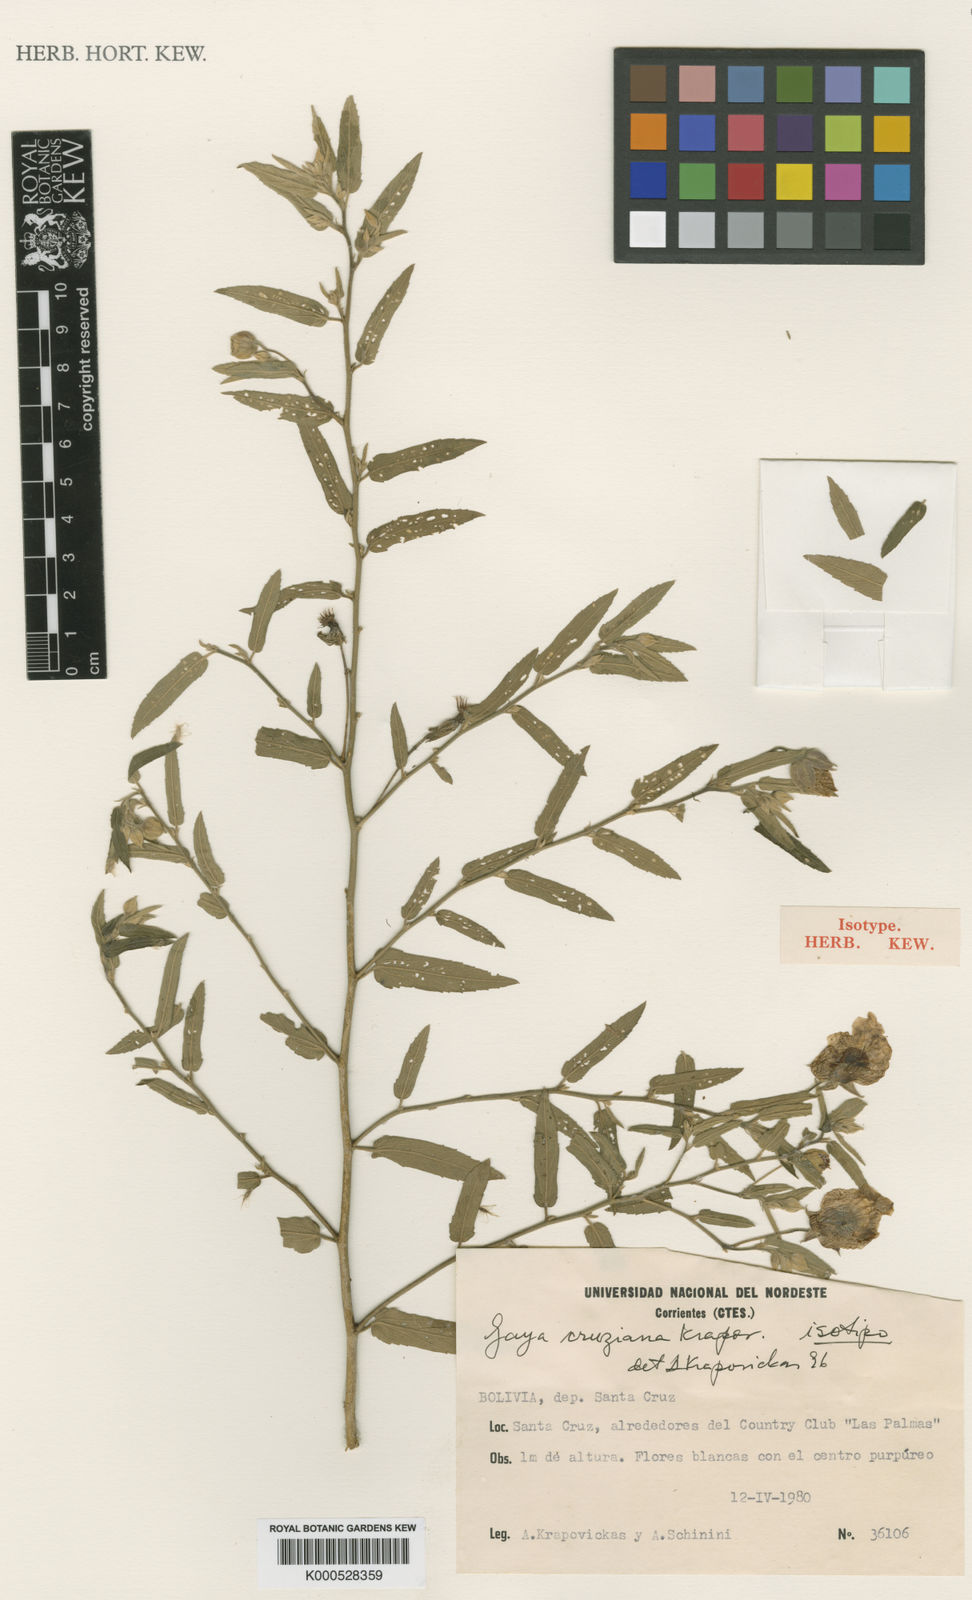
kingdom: Plantae
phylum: Tracheophyta
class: Magnoliopsida
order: Malvales
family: Malvaceae
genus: Gaya
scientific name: Gaya cruziana
